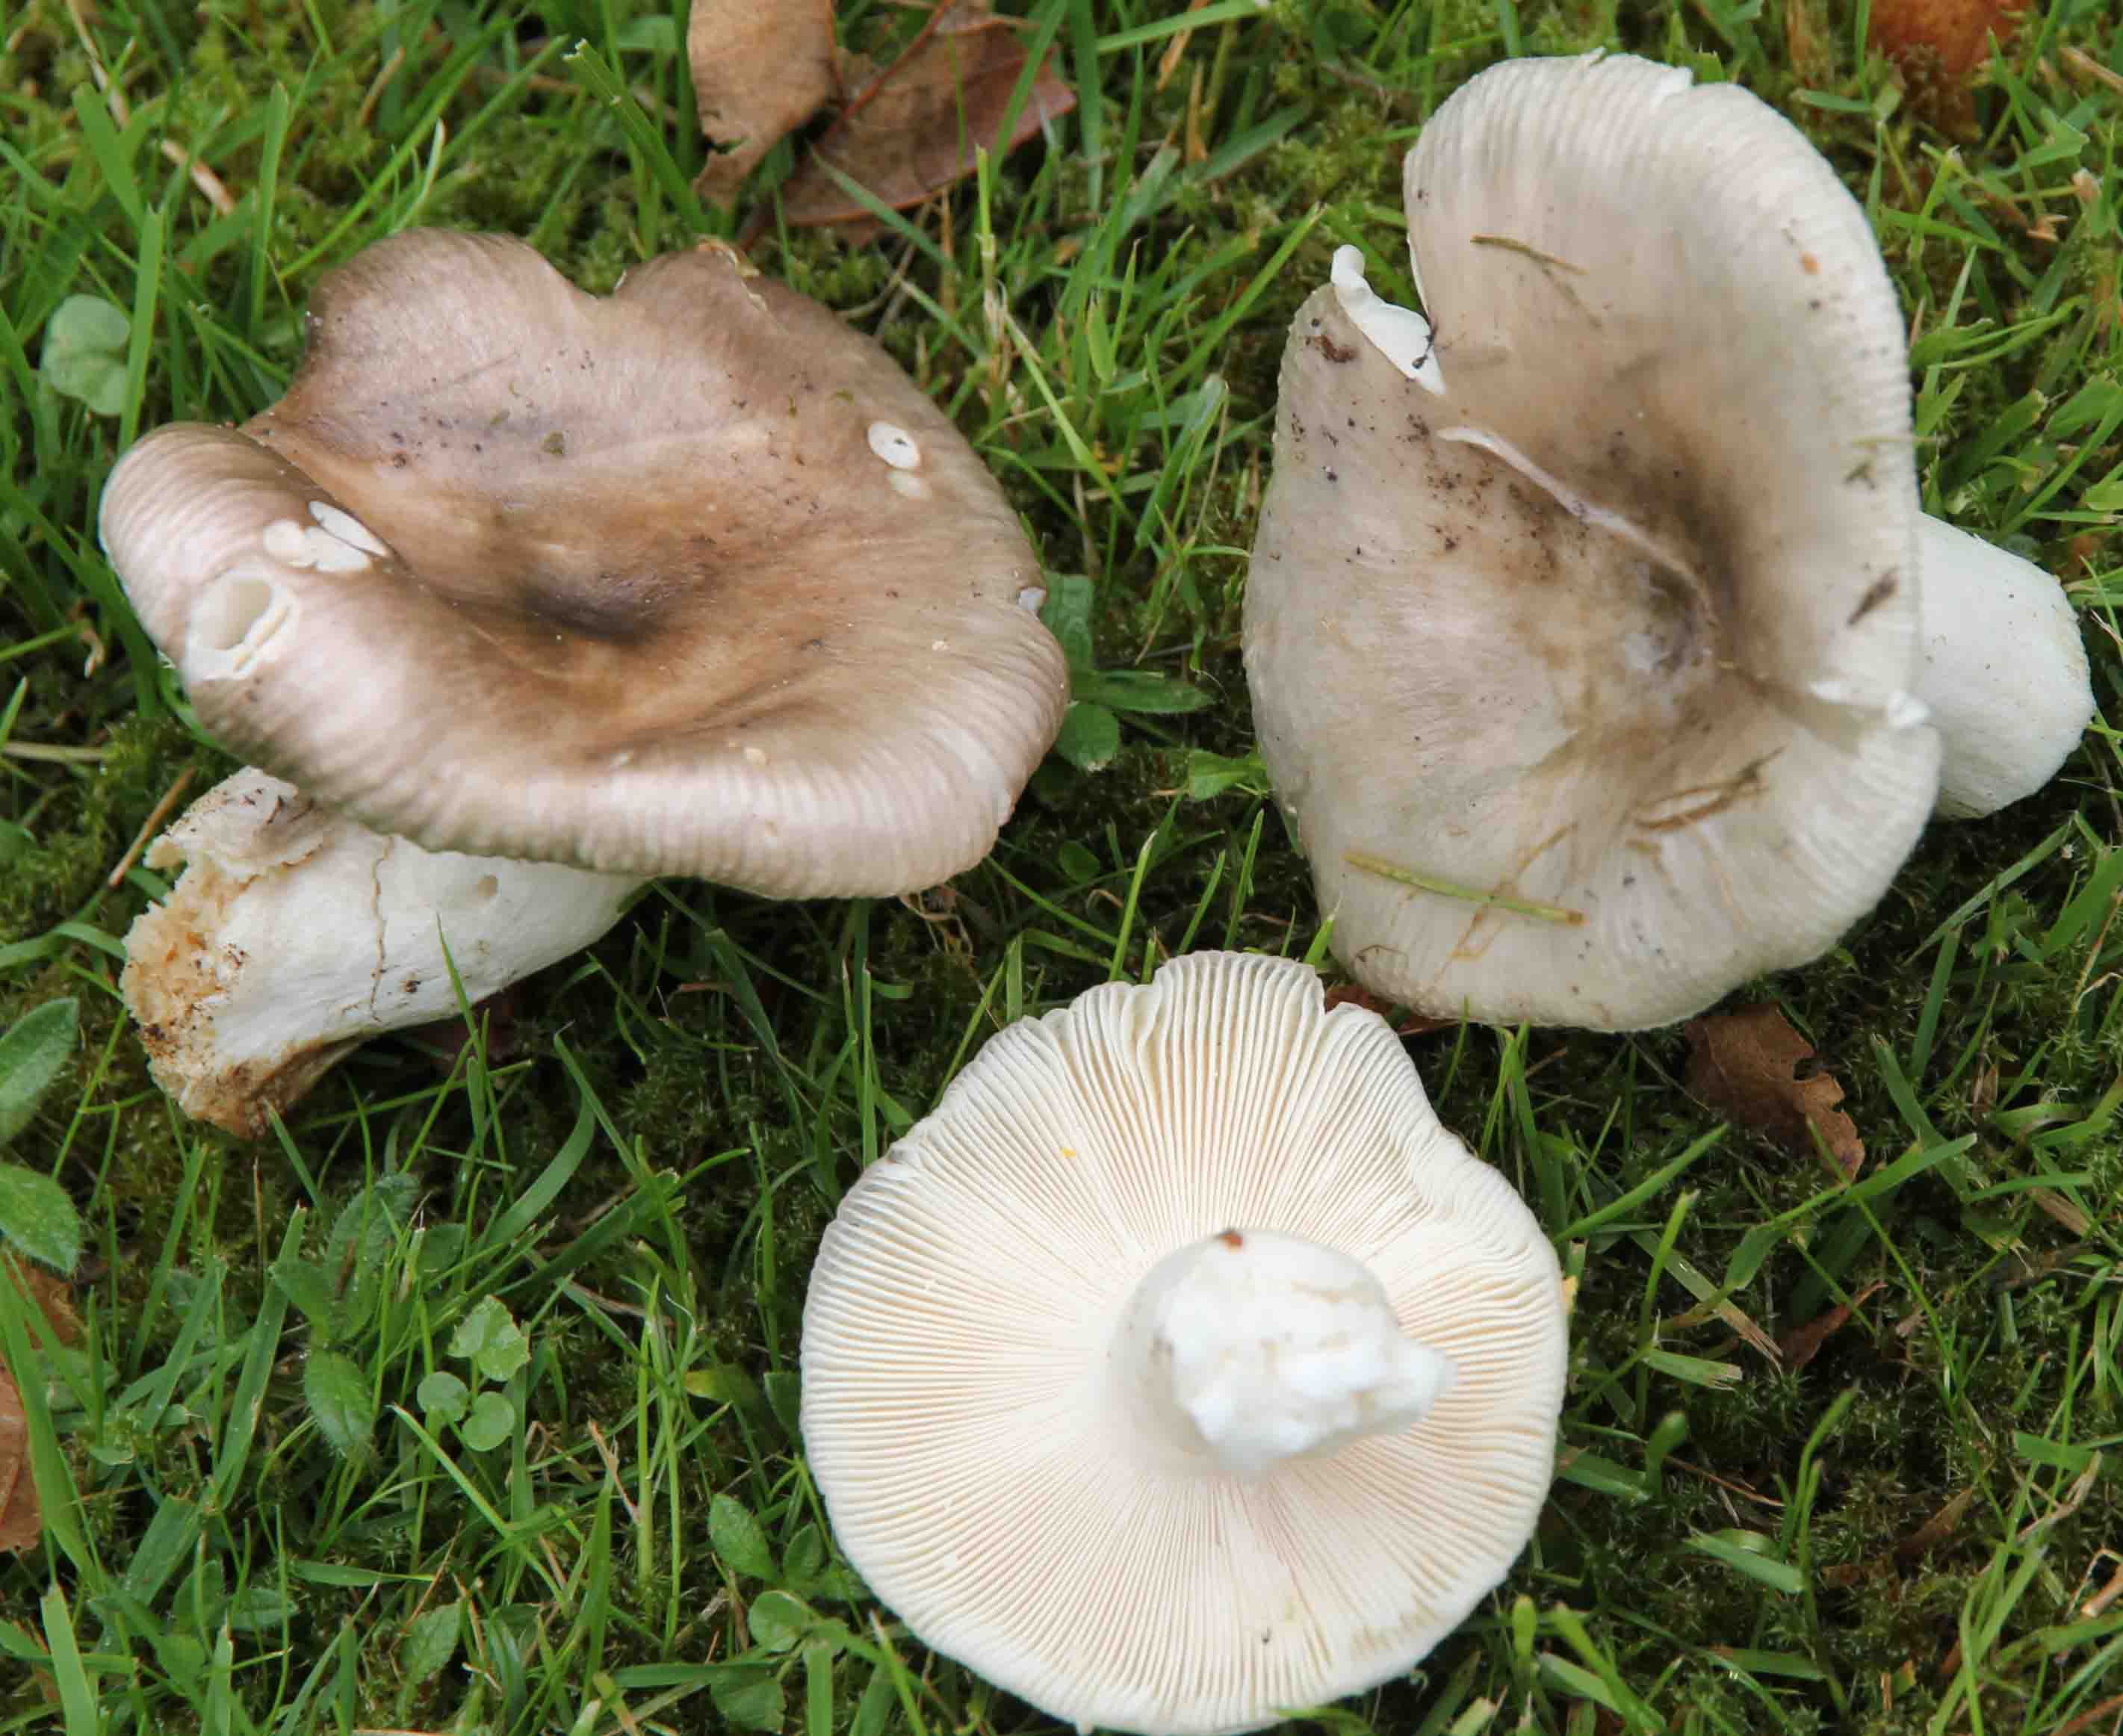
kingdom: Fungi
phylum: Basidiomycota
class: Agaricomycetes
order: Russulales
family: Russulaceae
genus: Russula
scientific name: Russula grisea
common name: grålig skørhat
